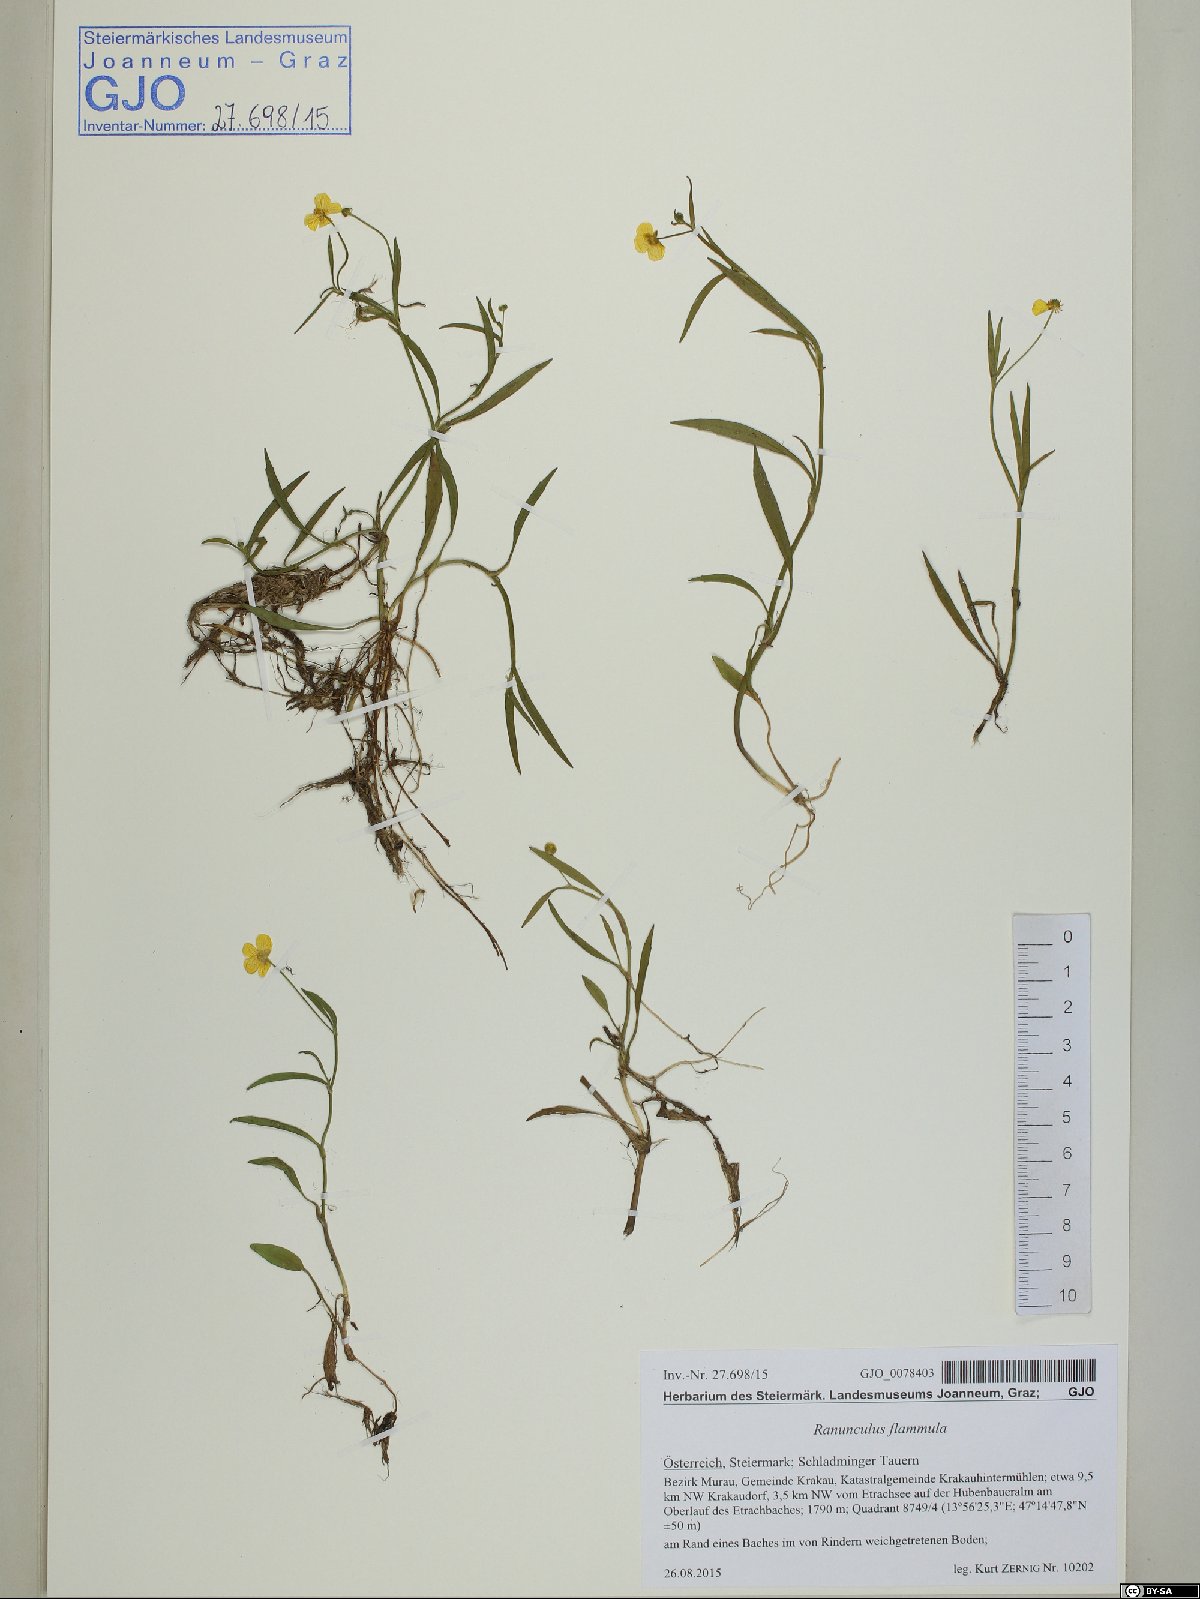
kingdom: Plantae
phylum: Tracheophyta
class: Magnoliopsida
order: Ranunculales
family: Ranunculaceae
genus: Ranunculus
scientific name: Ranunculus flammula
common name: Lesser spearwort
